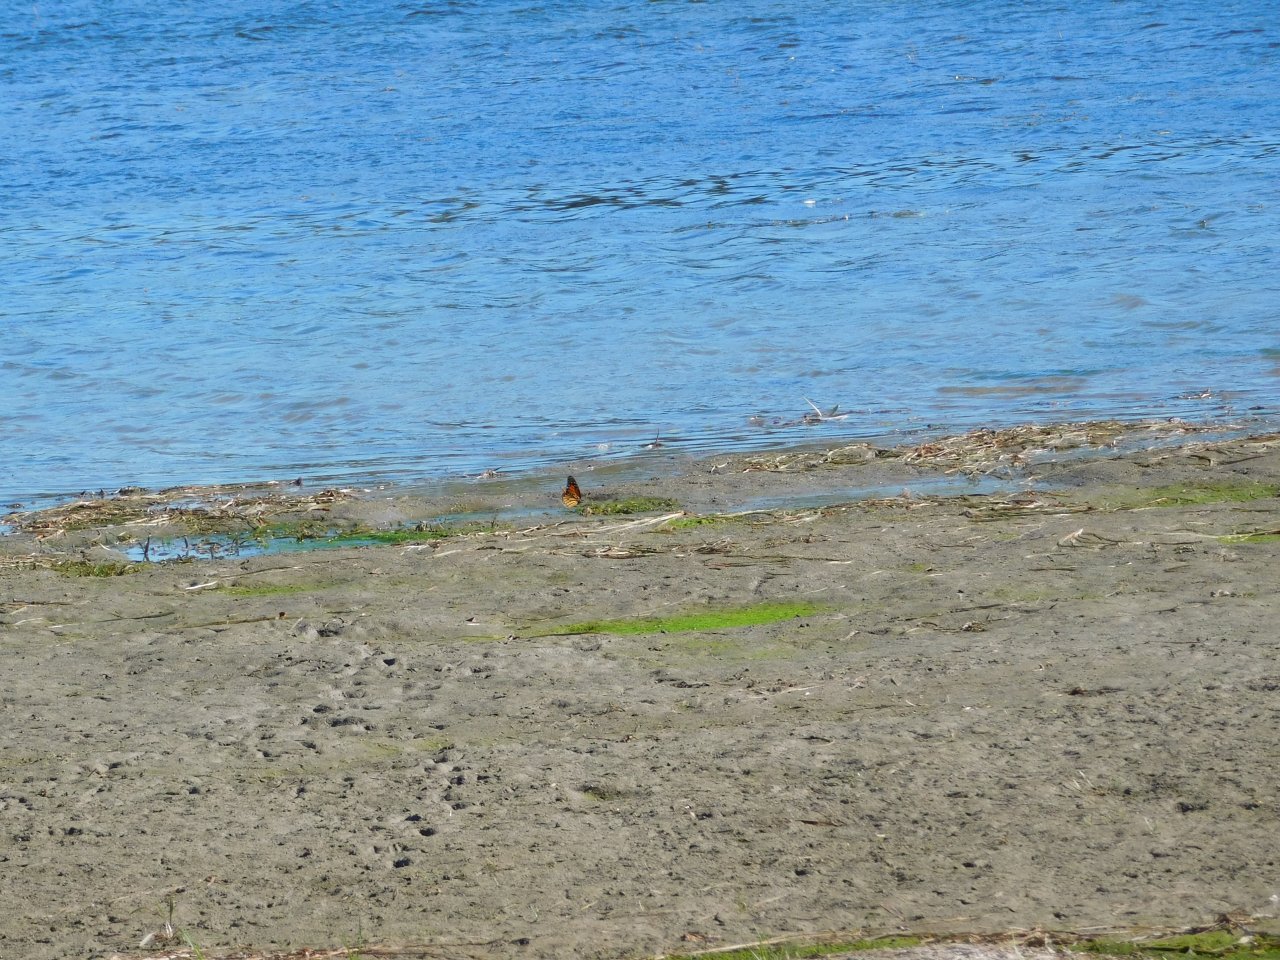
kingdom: Animalia
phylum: Arthropoda
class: Insecta
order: Lepidoptera
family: Nymphalidae
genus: Danaus
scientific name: Danaus plexippus
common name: Monarch
